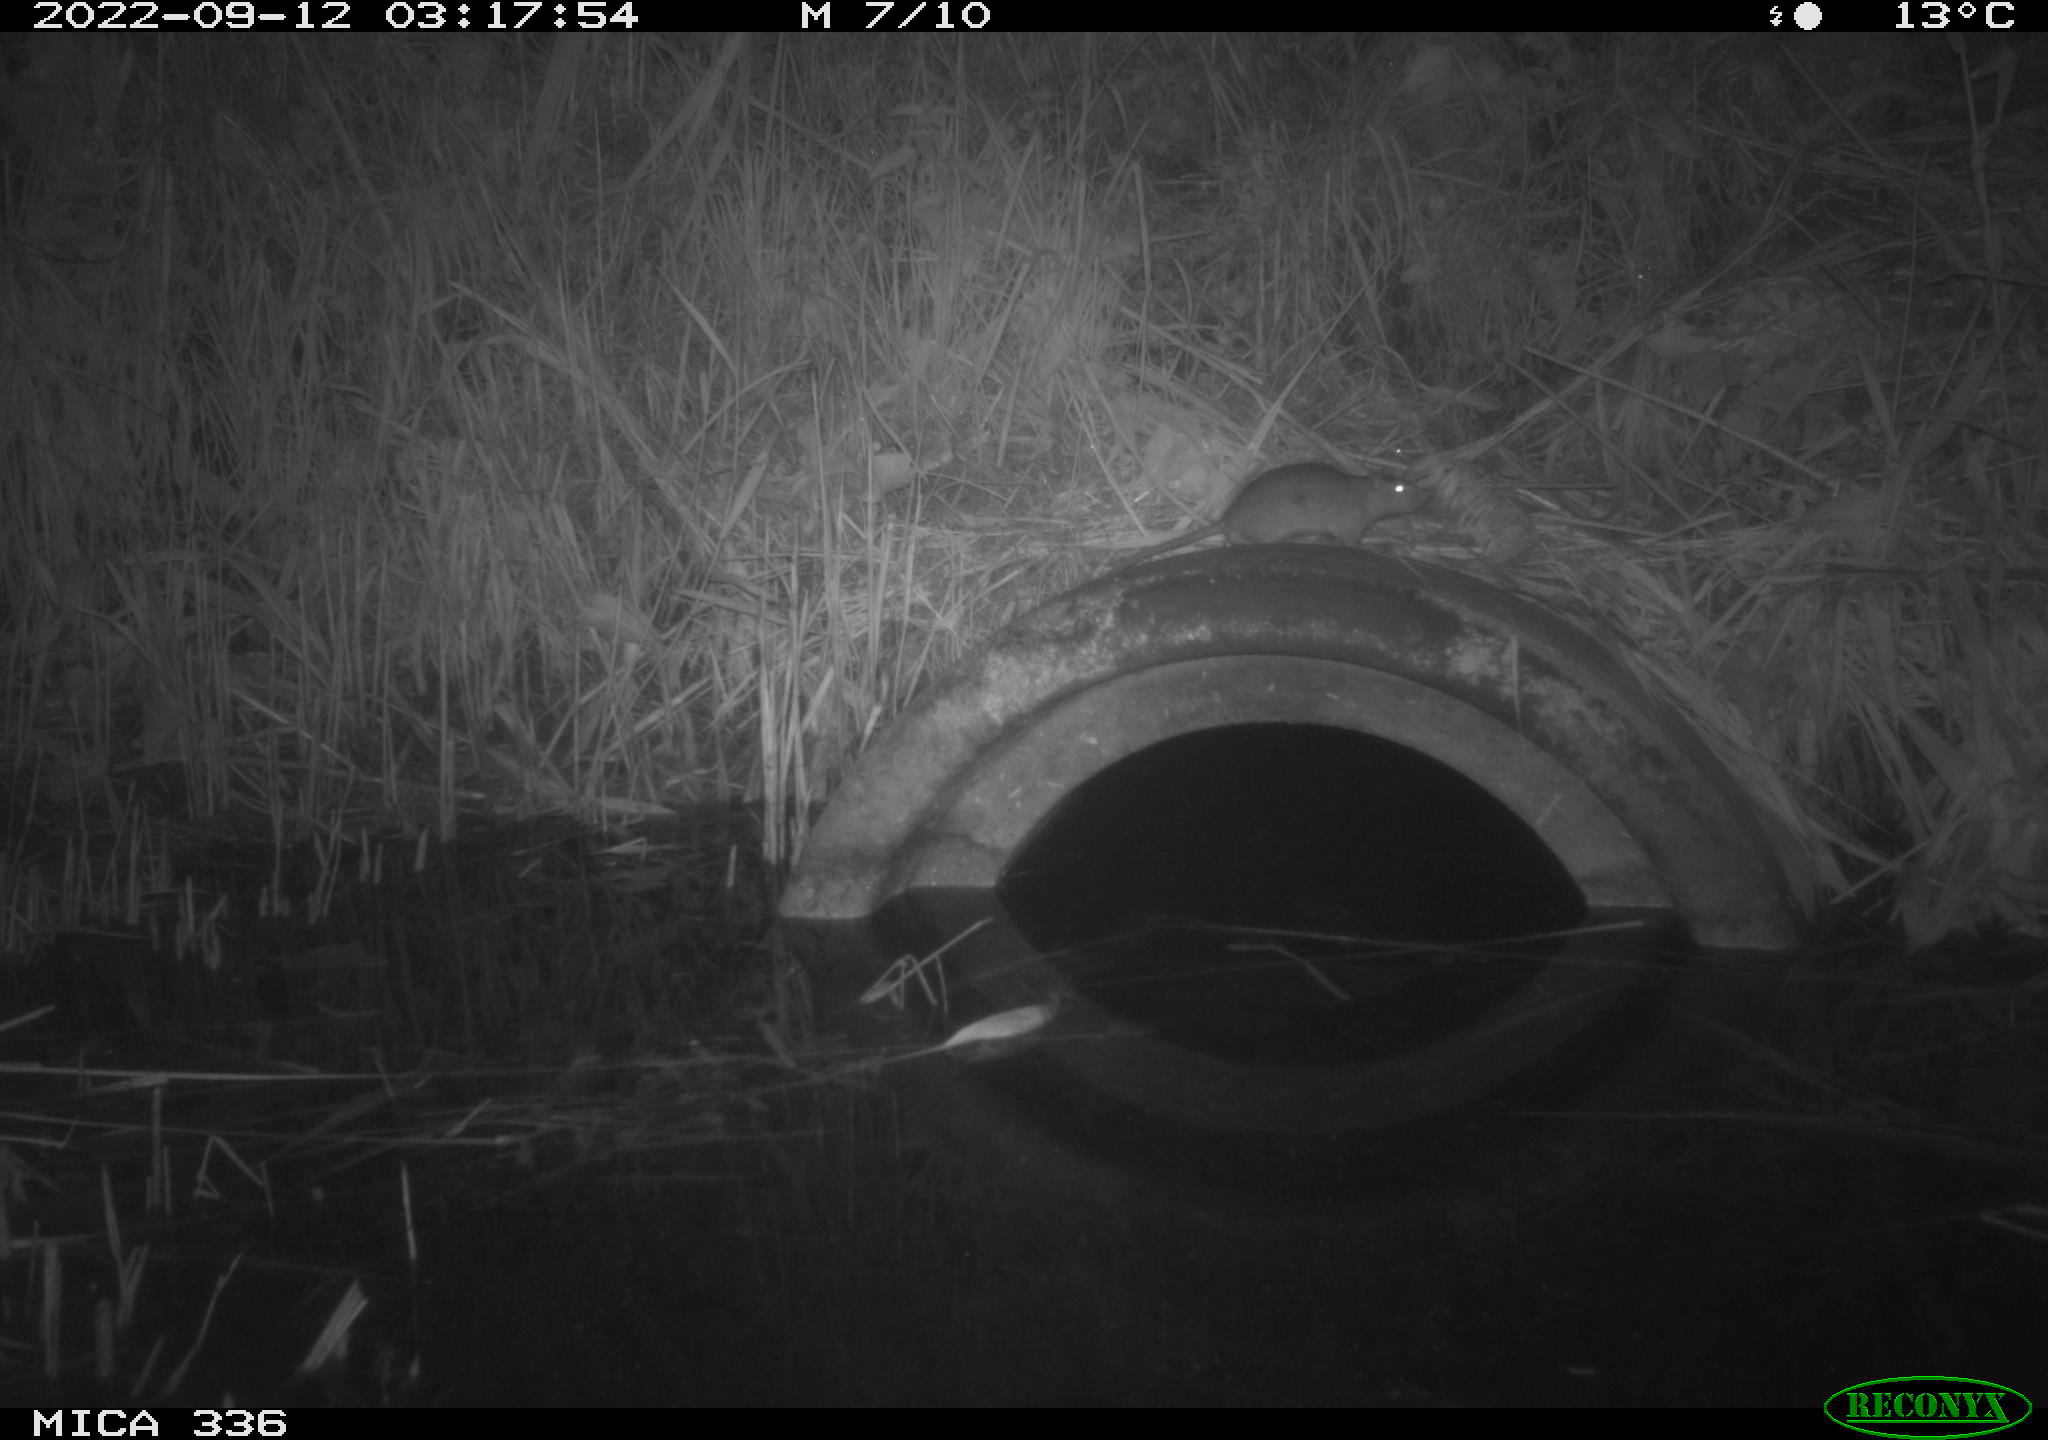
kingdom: Animalia
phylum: Chordata
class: Mammalia
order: Rodentia
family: Muridae
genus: Rattus
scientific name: Rattus norvegicus
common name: Brown rat
